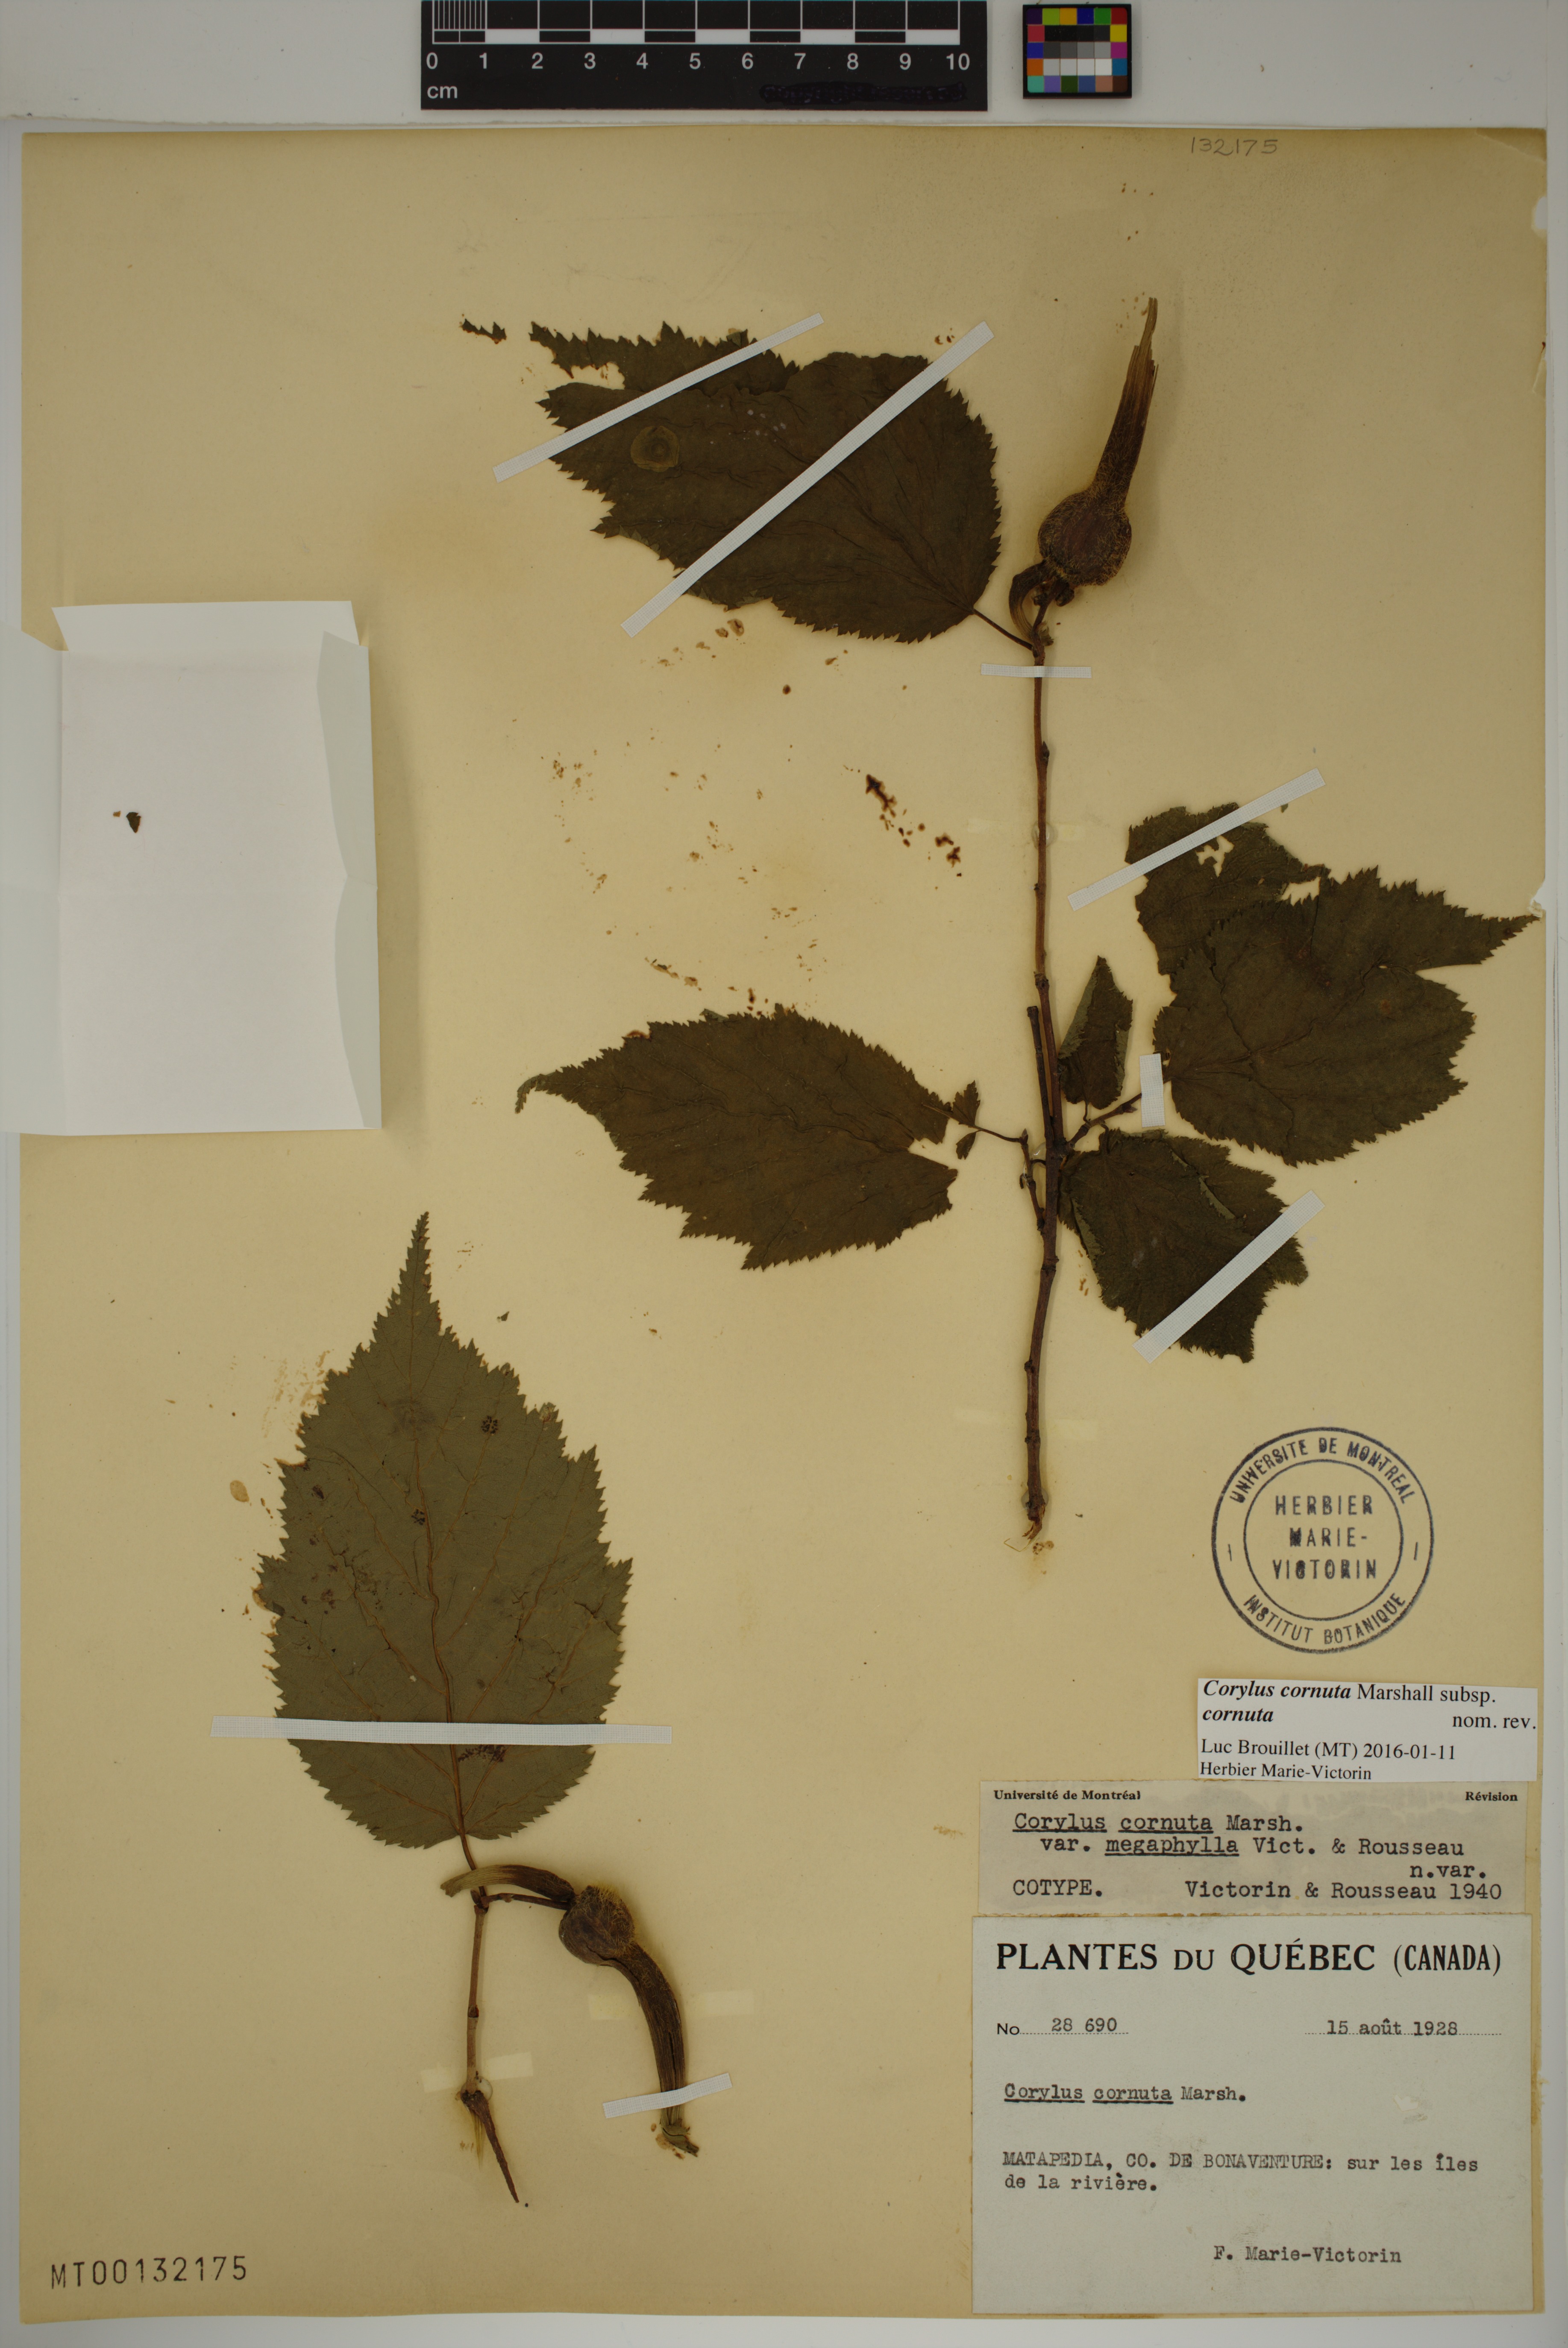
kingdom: Plantae
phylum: Tracheophyta
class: Magnoliopsida
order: Fagales
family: Betulaceae
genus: Corylus
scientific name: Corylus cornuta
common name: Beaked hazel
